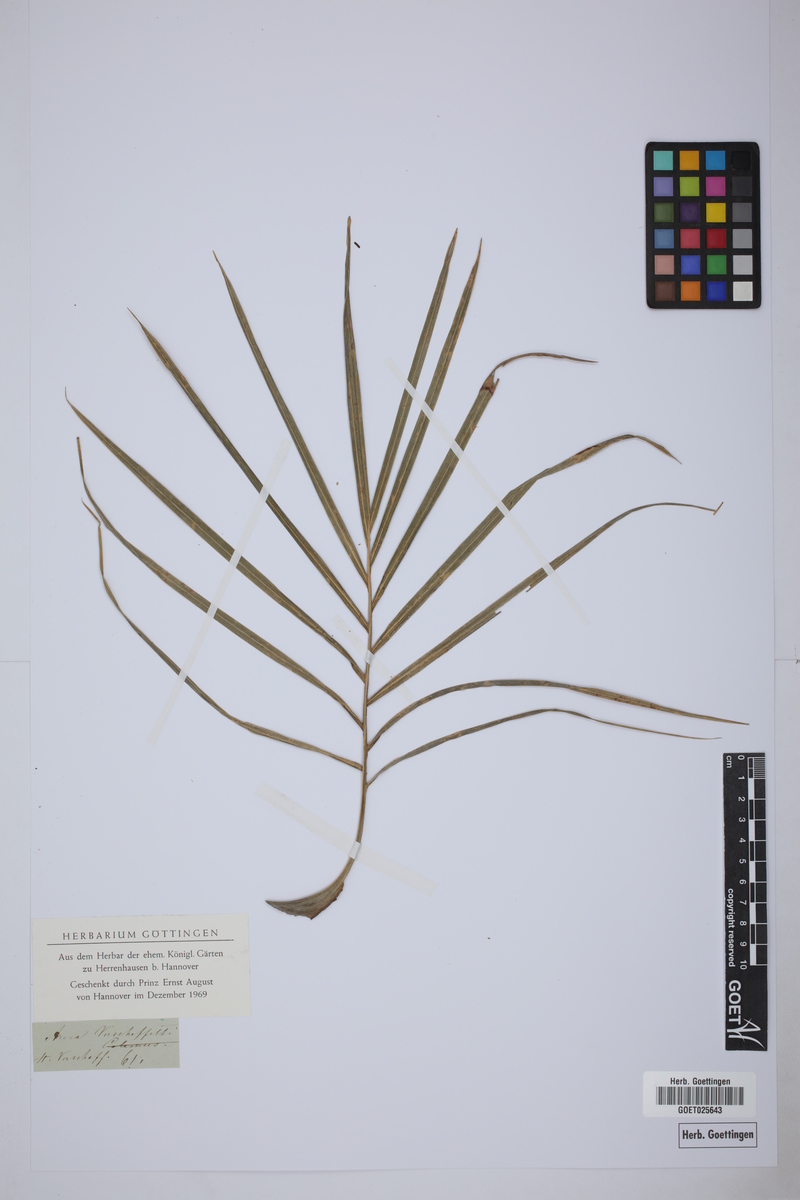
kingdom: Plantae
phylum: Tracheophyta
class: Liliopsida
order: Arecales
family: Arecaceae
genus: Hyophorbe
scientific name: Hyophorbe verschaffeltii
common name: Spindle palm
